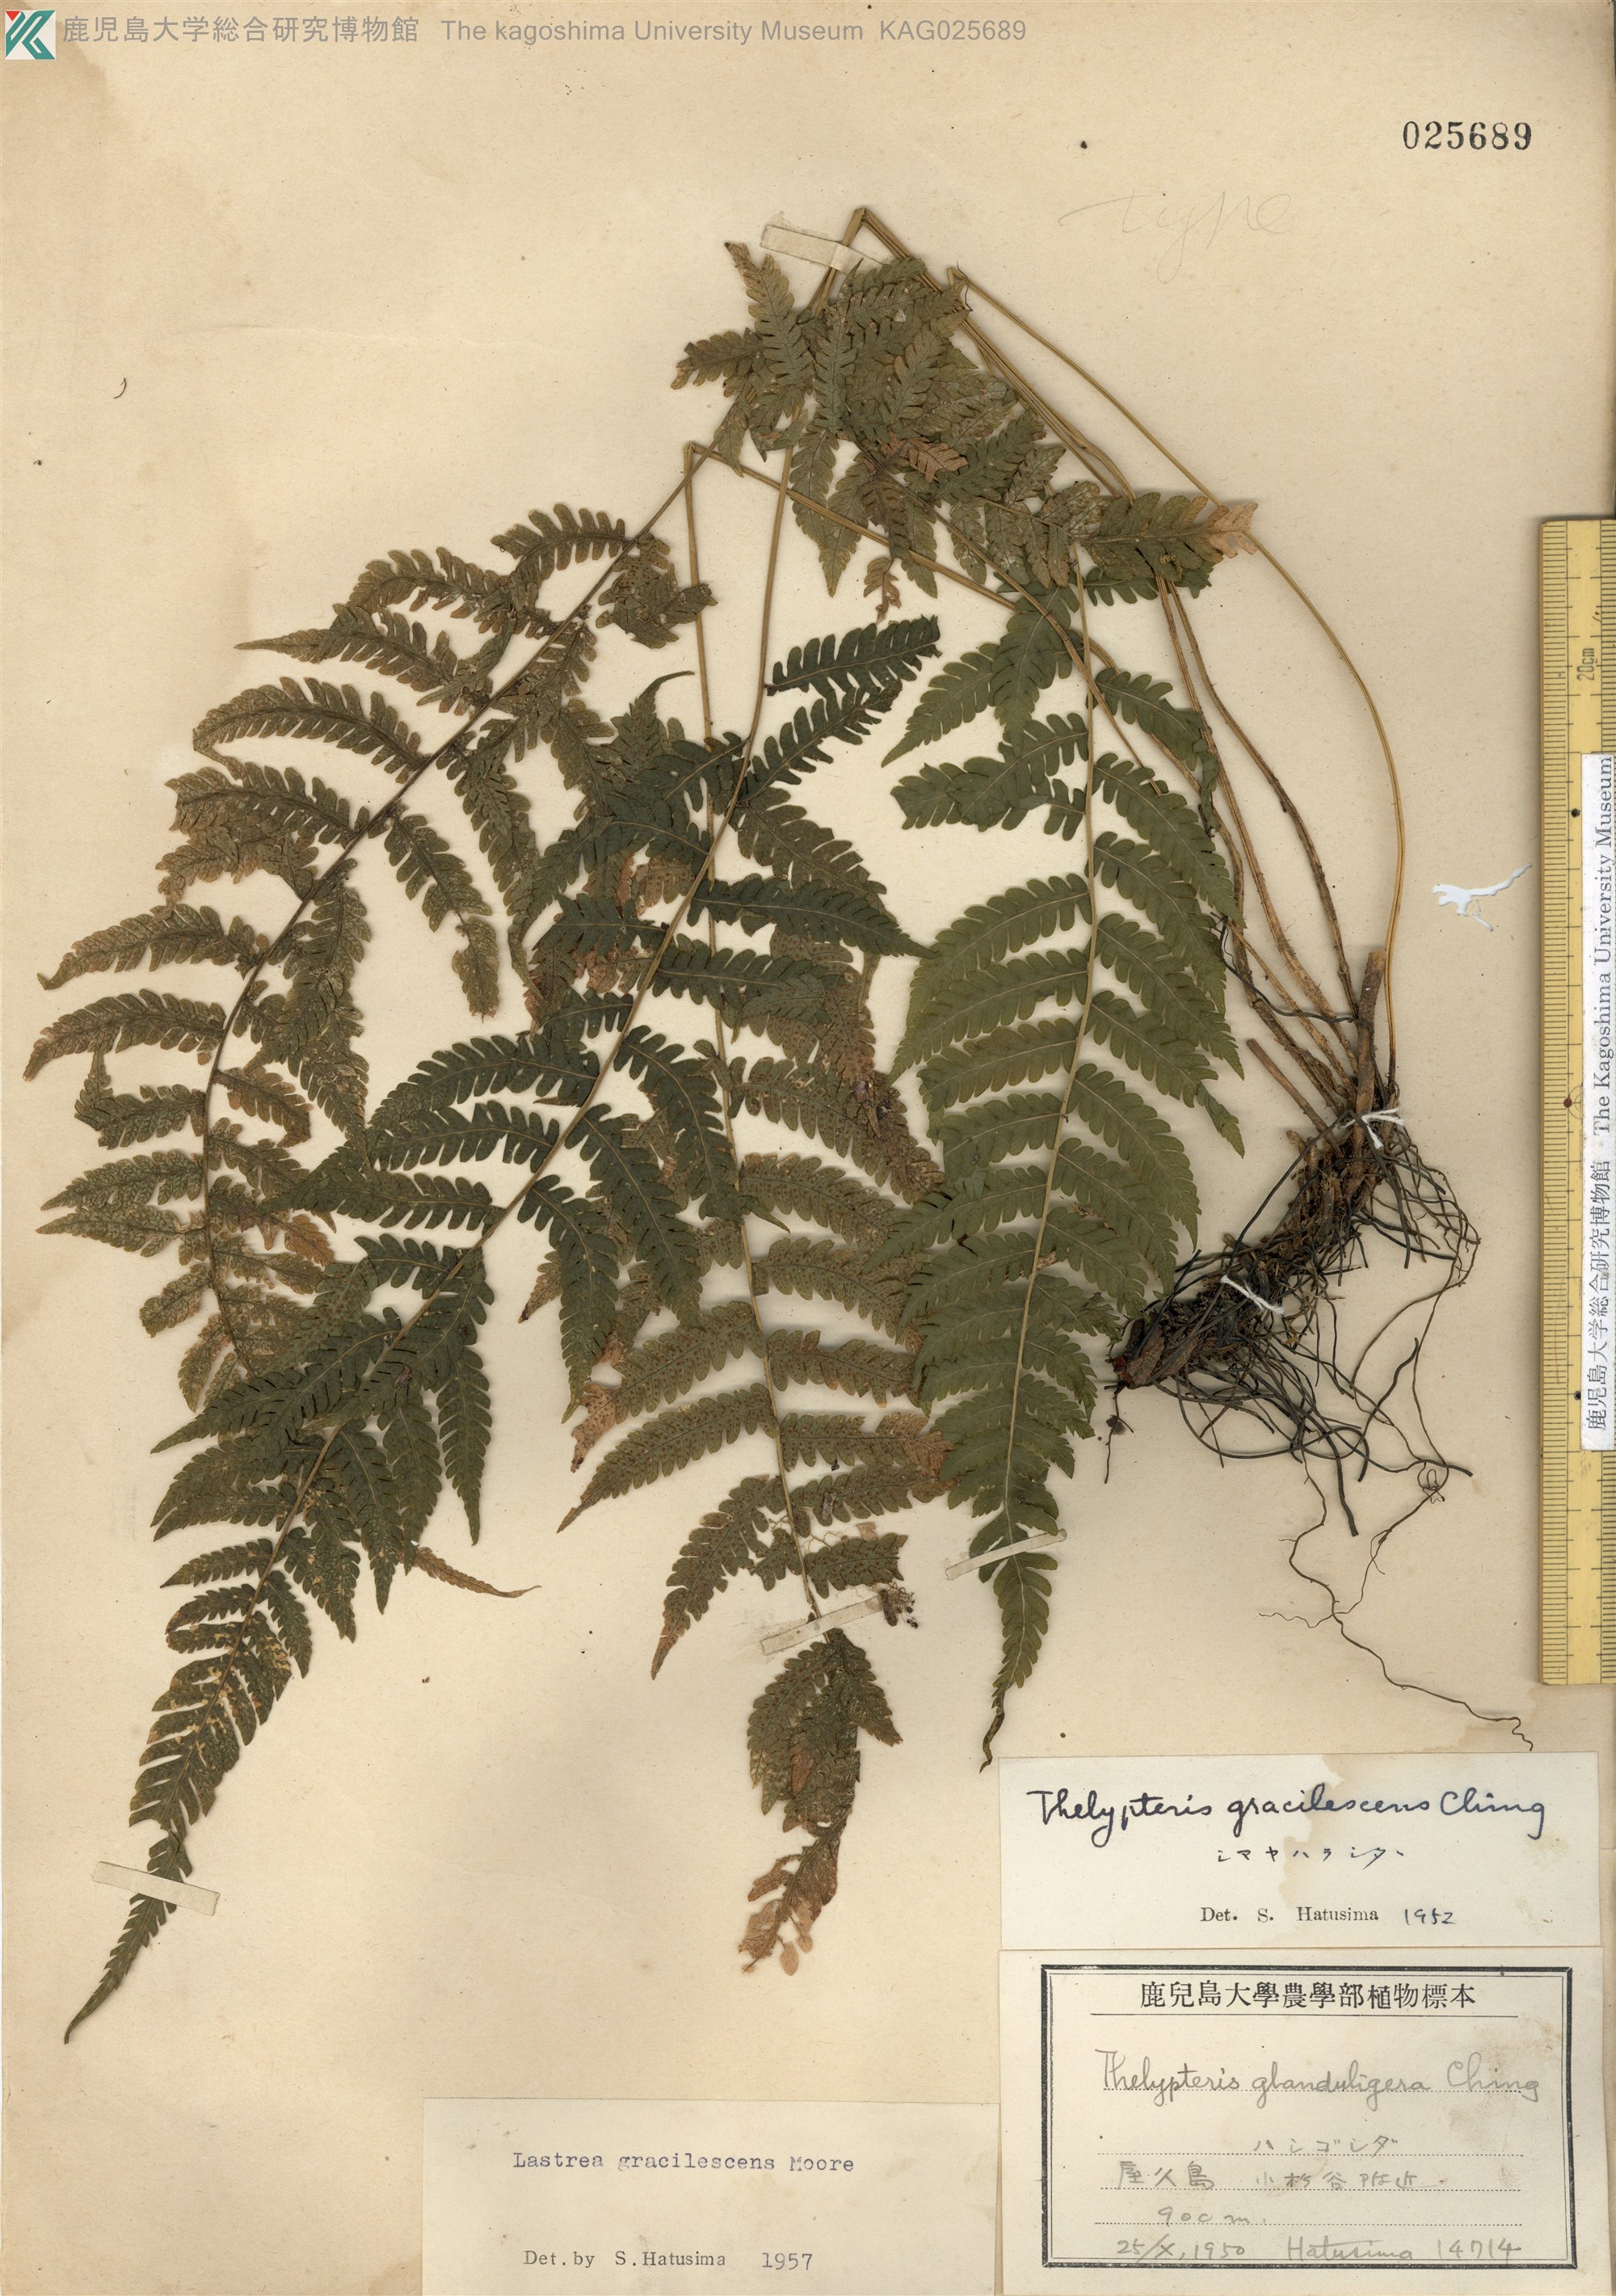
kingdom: Plantae
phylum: Tracheophyta
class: Polypodiopsida
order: Polypodiales
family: Thelypteridaceae
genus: Metathelypteris
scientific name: Metathelypteris gracilescens
